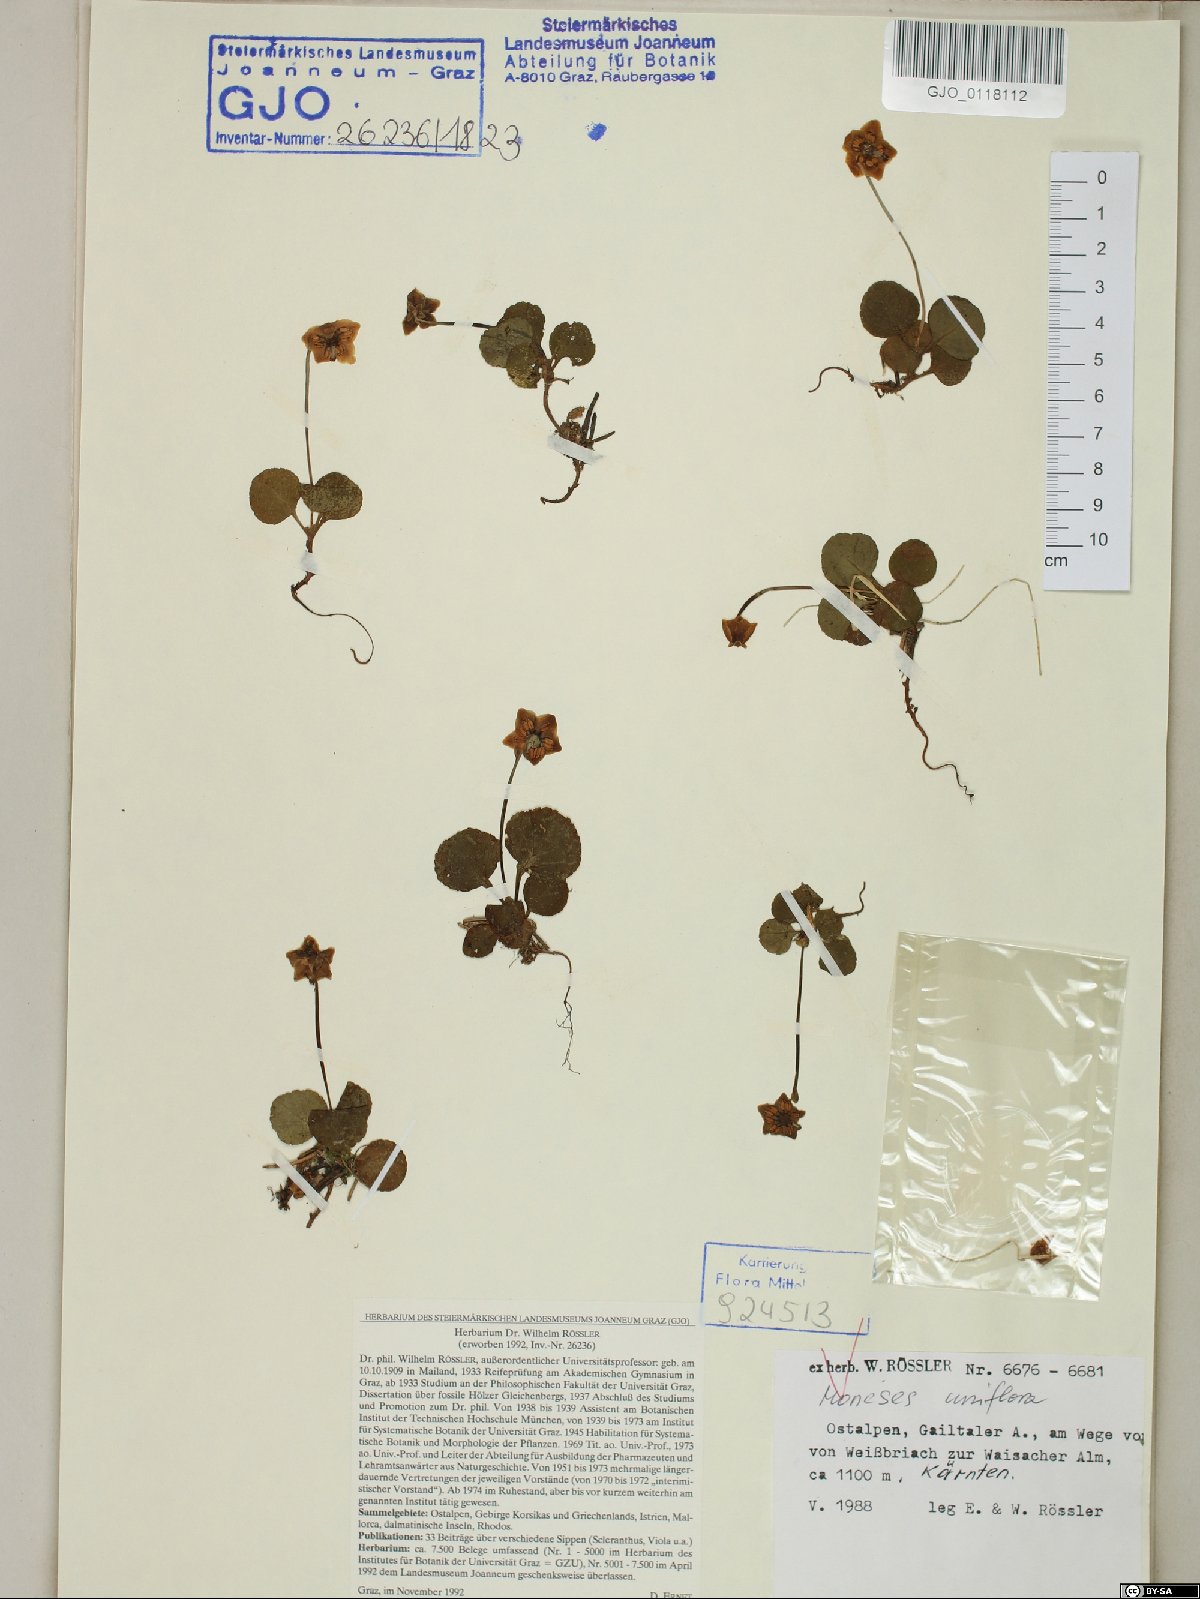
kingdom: Plantae
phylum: Tracheophyta
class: Magnoliopsida
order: Ranunculales
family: Ranunculaceae
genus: Aquilegia
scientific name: Aquilegia atrata
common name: Dark columbine
